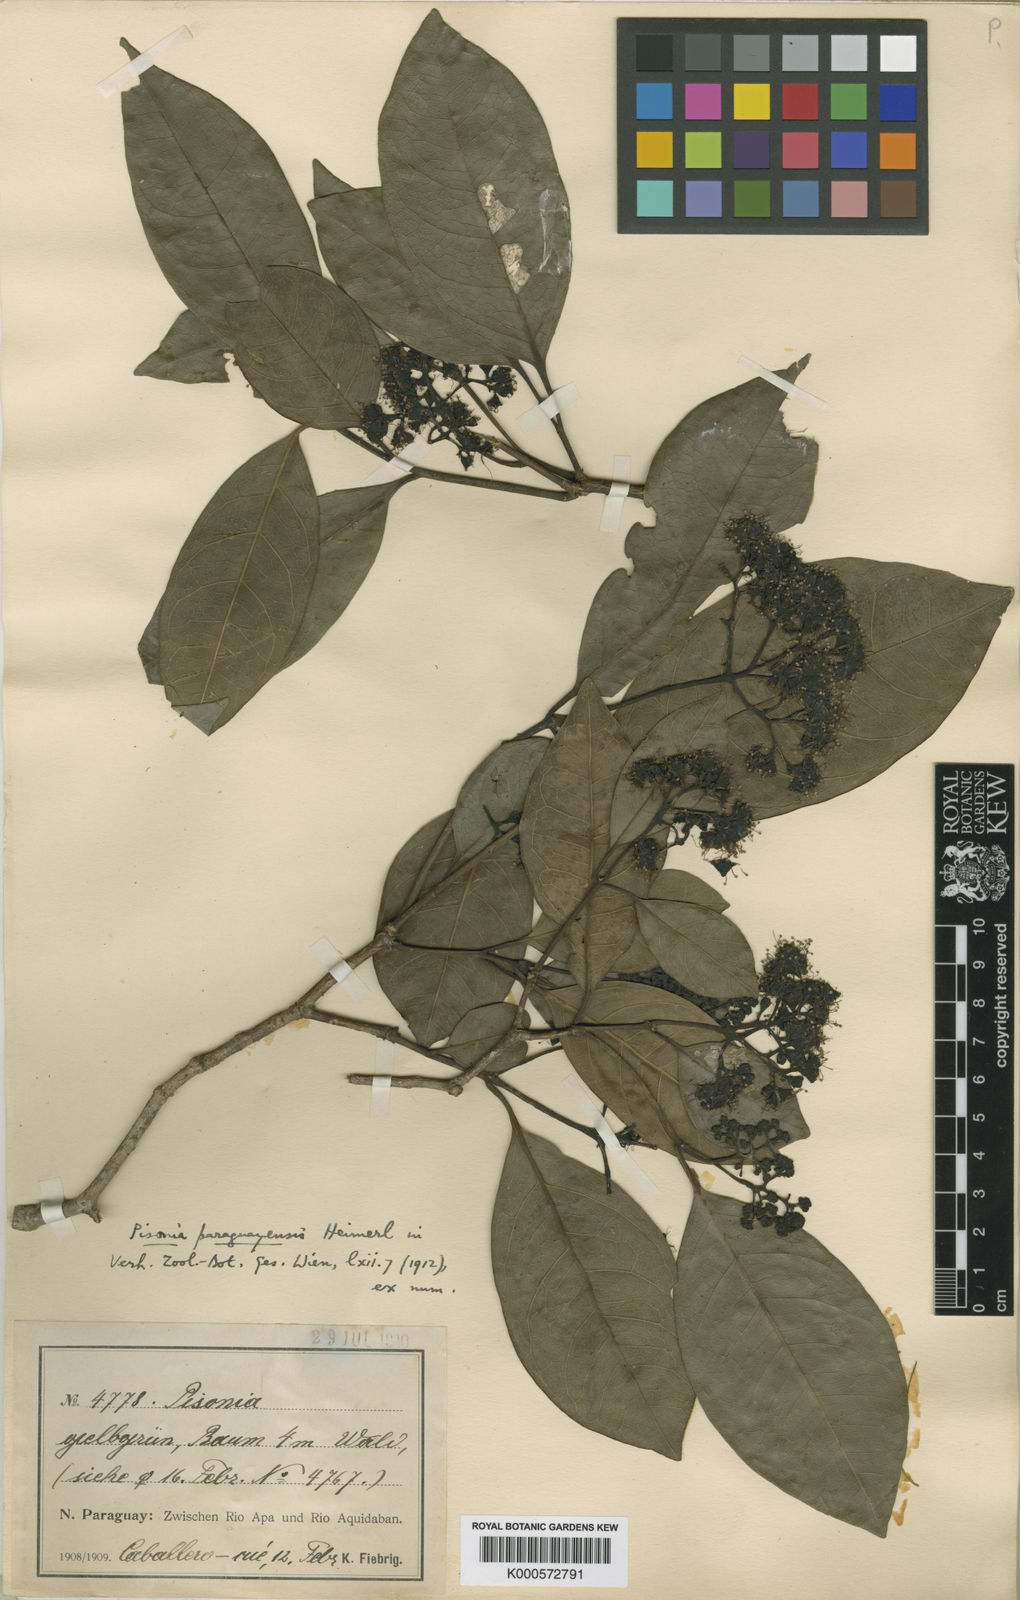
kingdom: Plantae
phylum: Tracheophyta
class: Magnoliopsida
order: Caryophyllales
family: Nyctaginaceae
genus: Guapira
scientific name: Guapira paraguayensis
